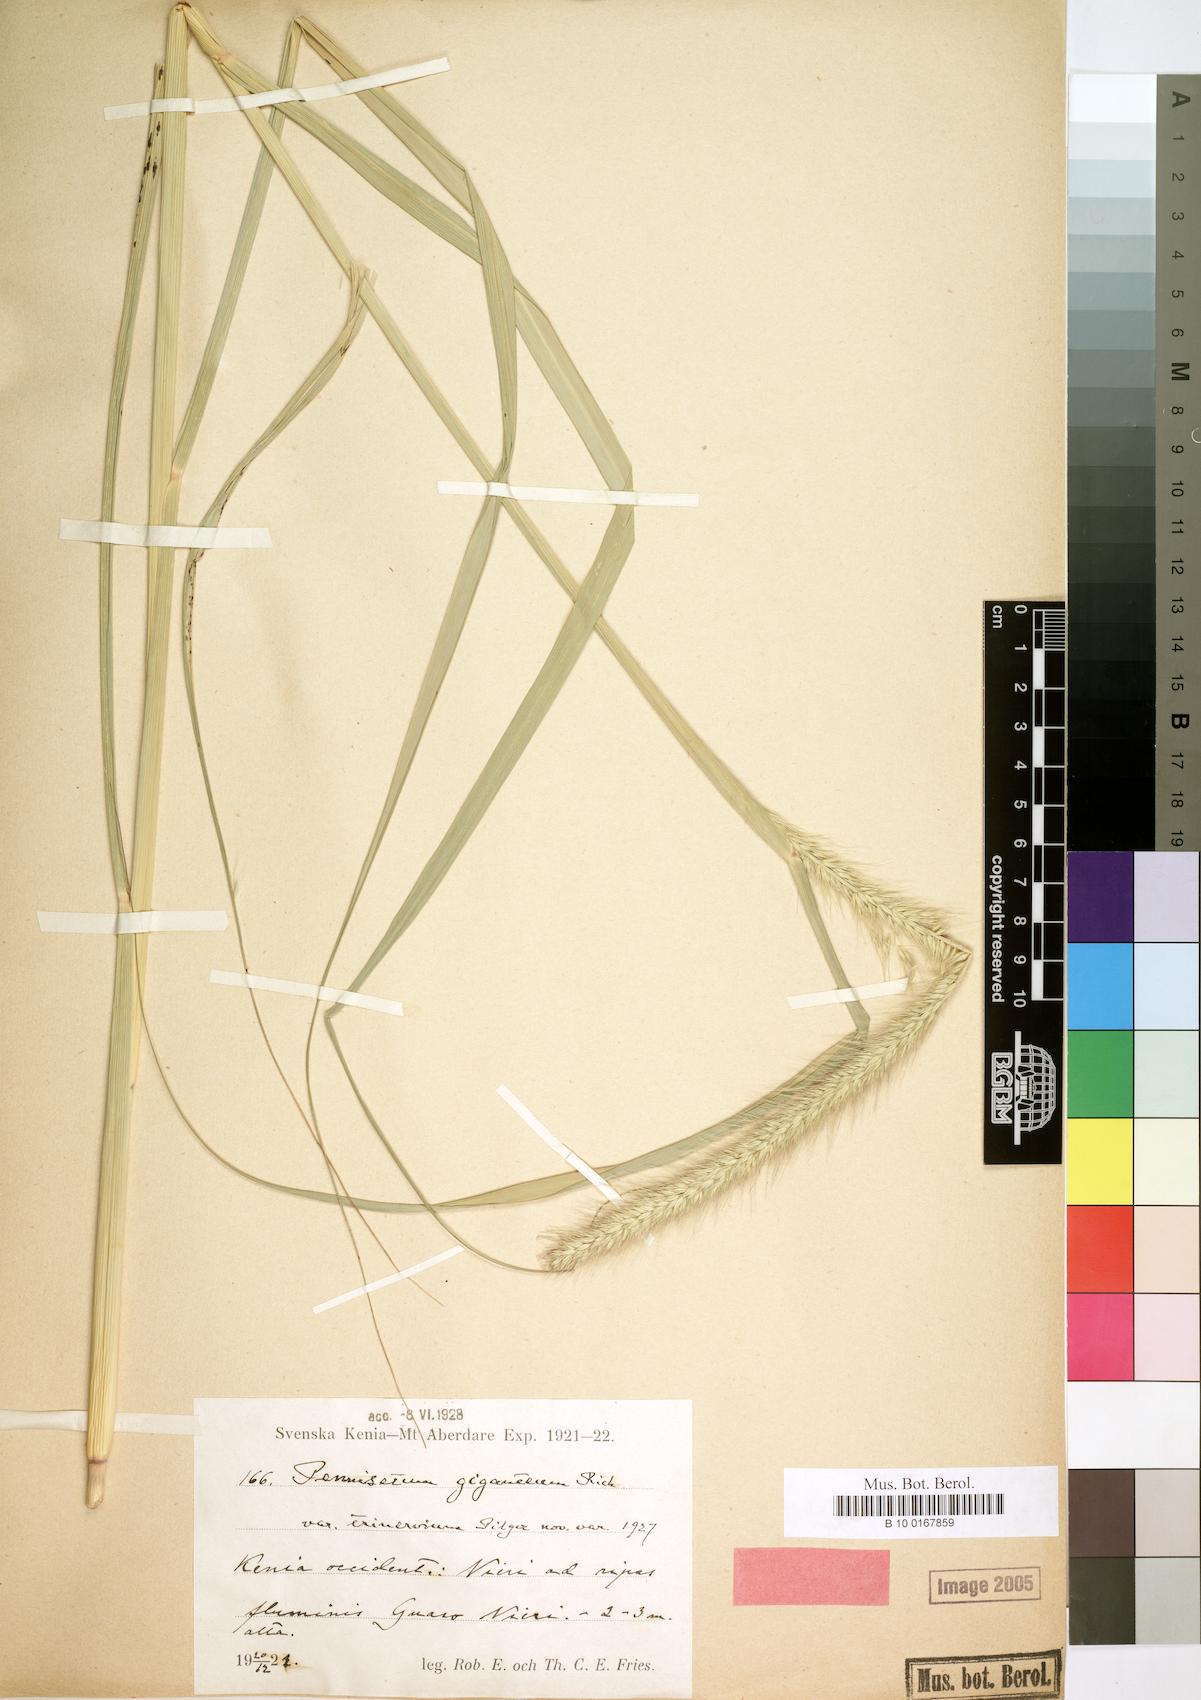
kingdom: Plantae
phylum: Tracheophyta
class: Liliopsida
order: Poales
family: Poaceae
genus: Cenchrus
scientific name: Cenchrus caudatus
